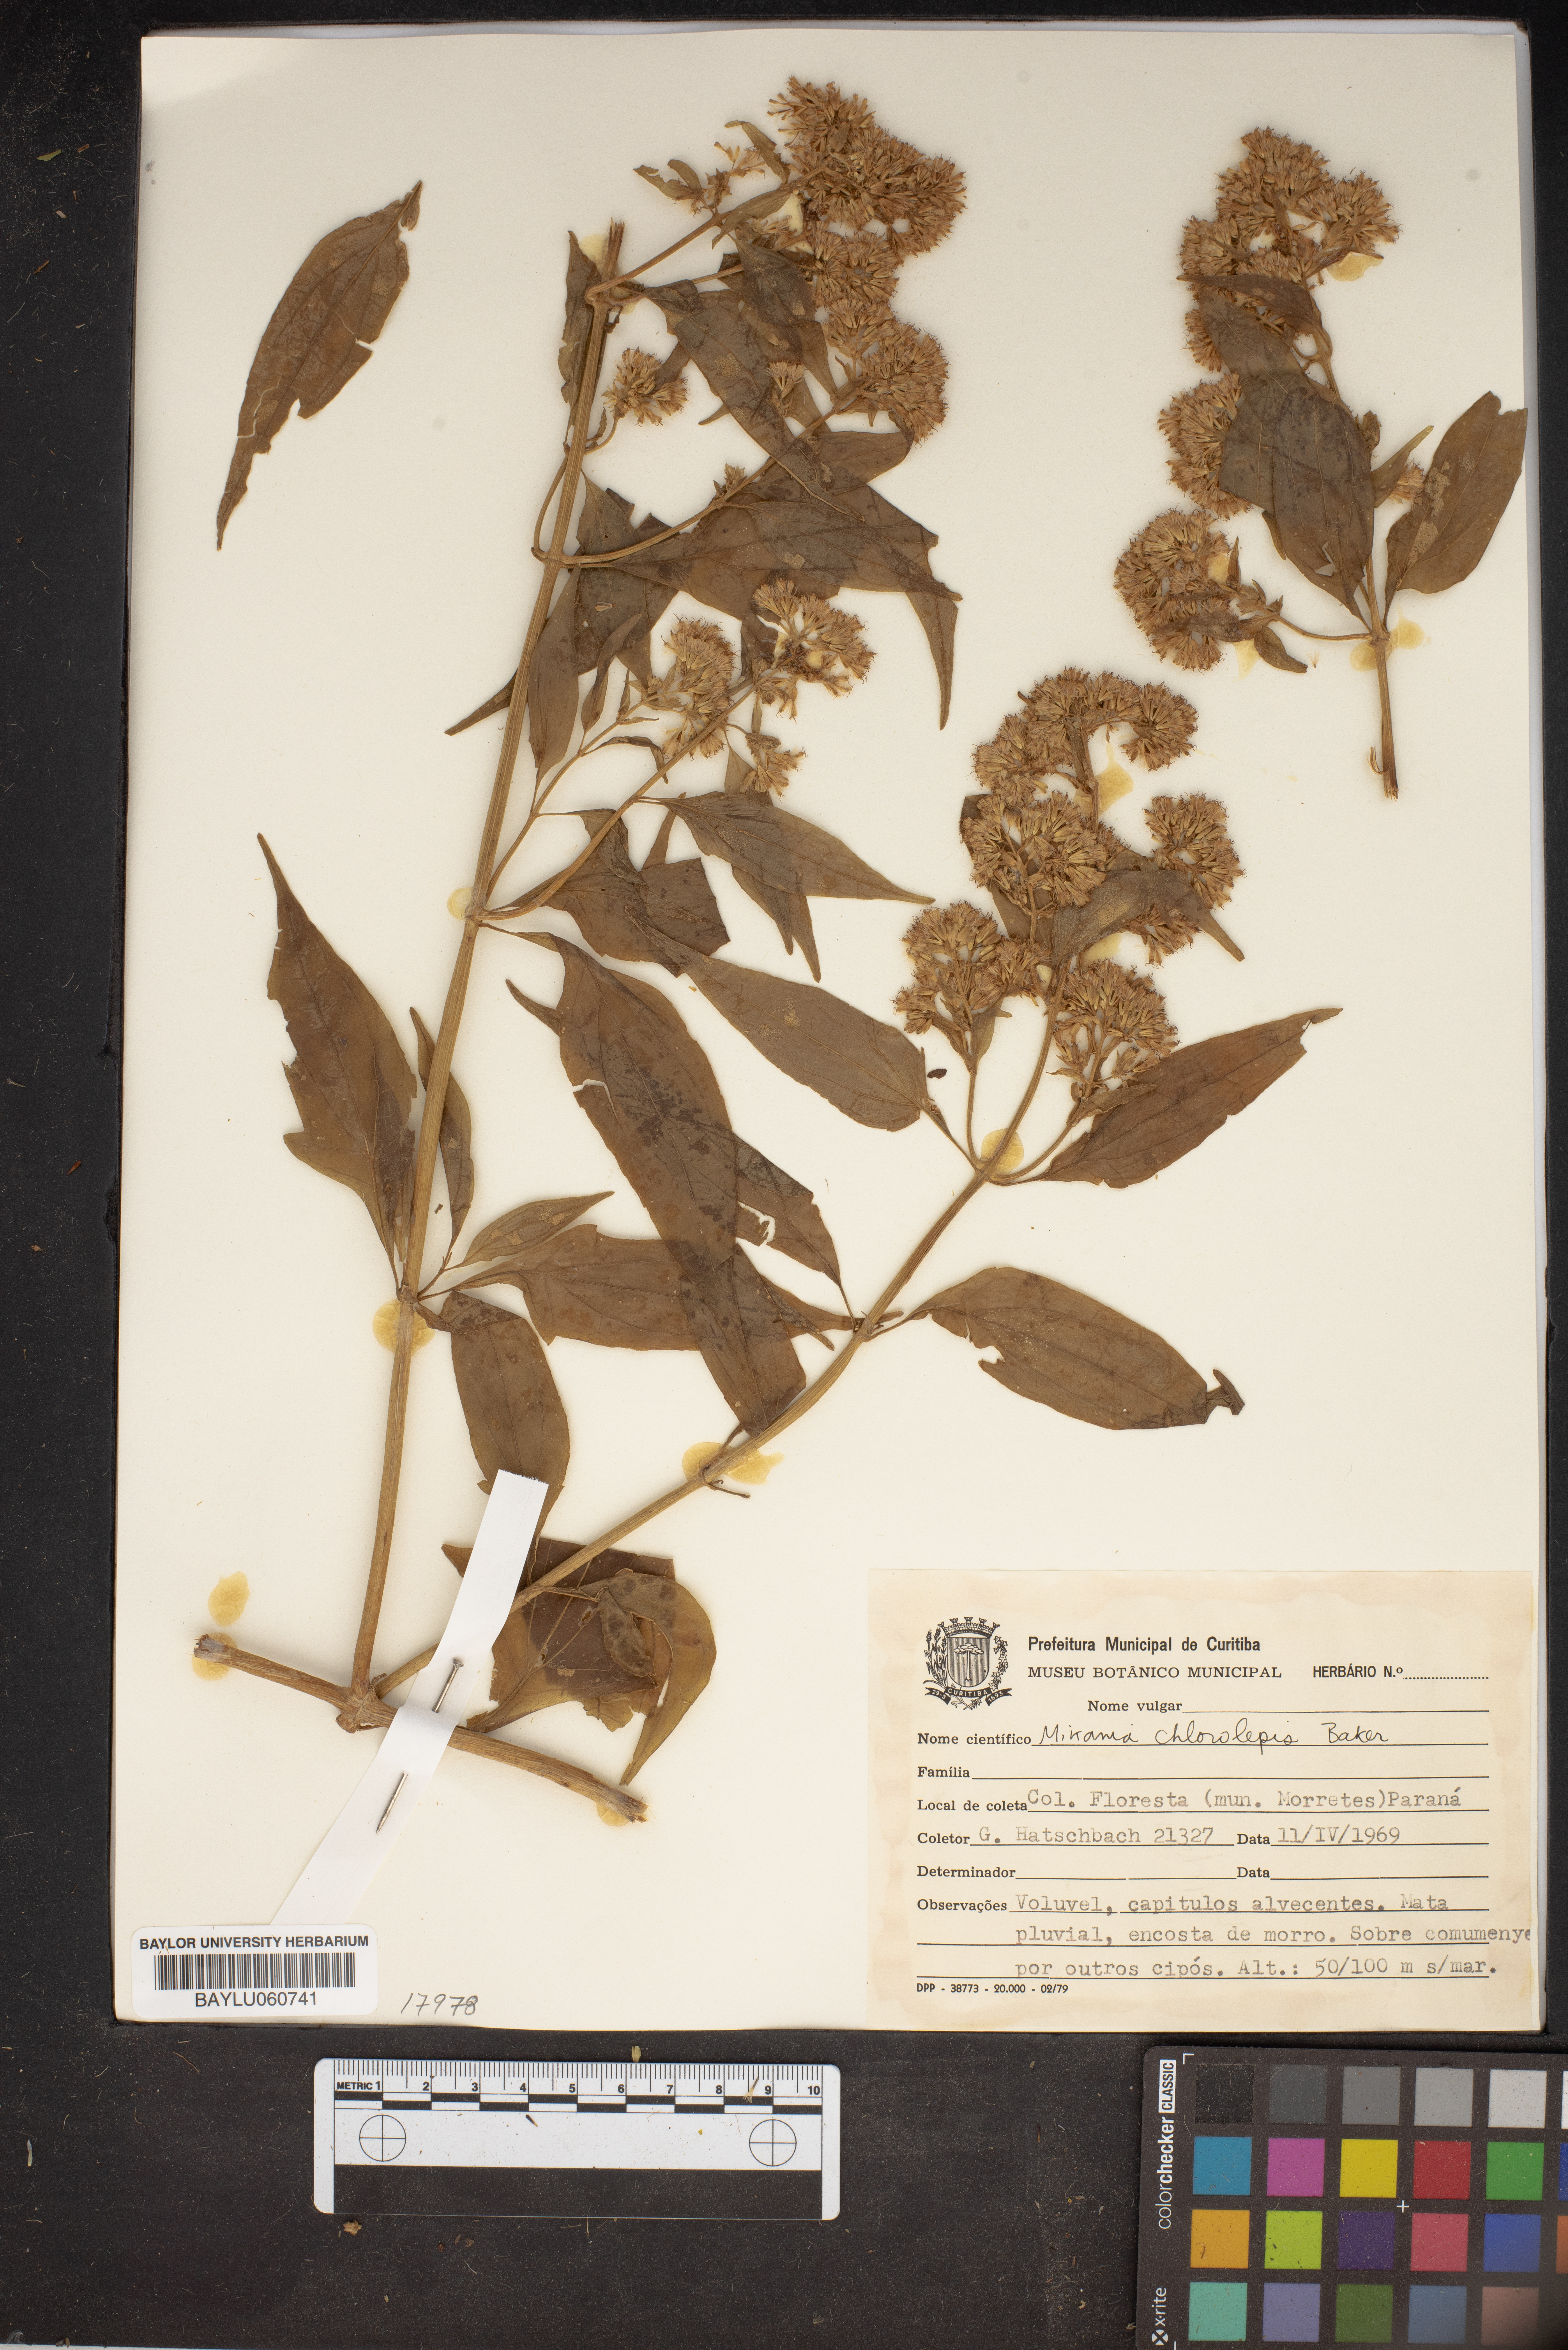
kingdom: Plantae
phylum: Tracheophyta
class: Magnoliopsida
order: Asterales
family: Asteraceae
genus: Mikania
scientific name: Mikania chlorolepis
